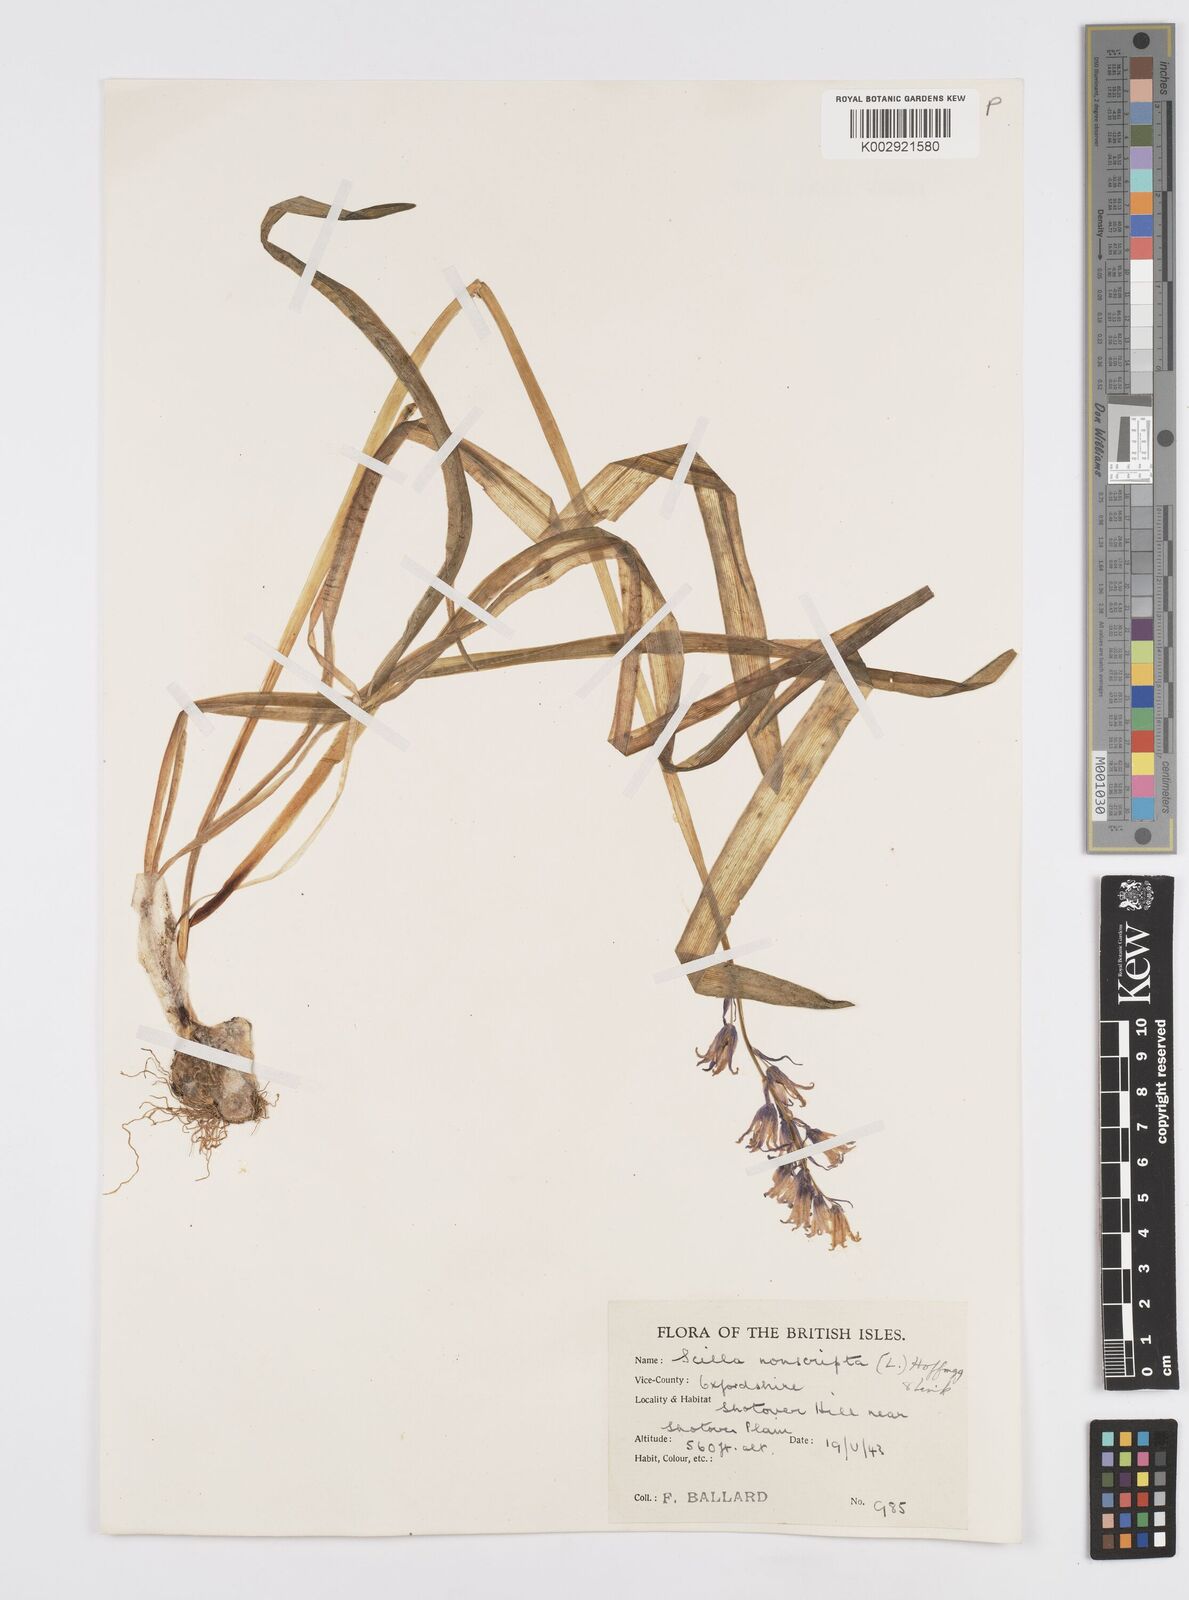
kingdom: Plantae
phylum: Tracheophyta
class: Liliopsida
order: Asparagales
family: Asparagaceae
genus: Hyacinthoides
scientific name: Hyacinthoides non-scripta
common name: Bluebell
